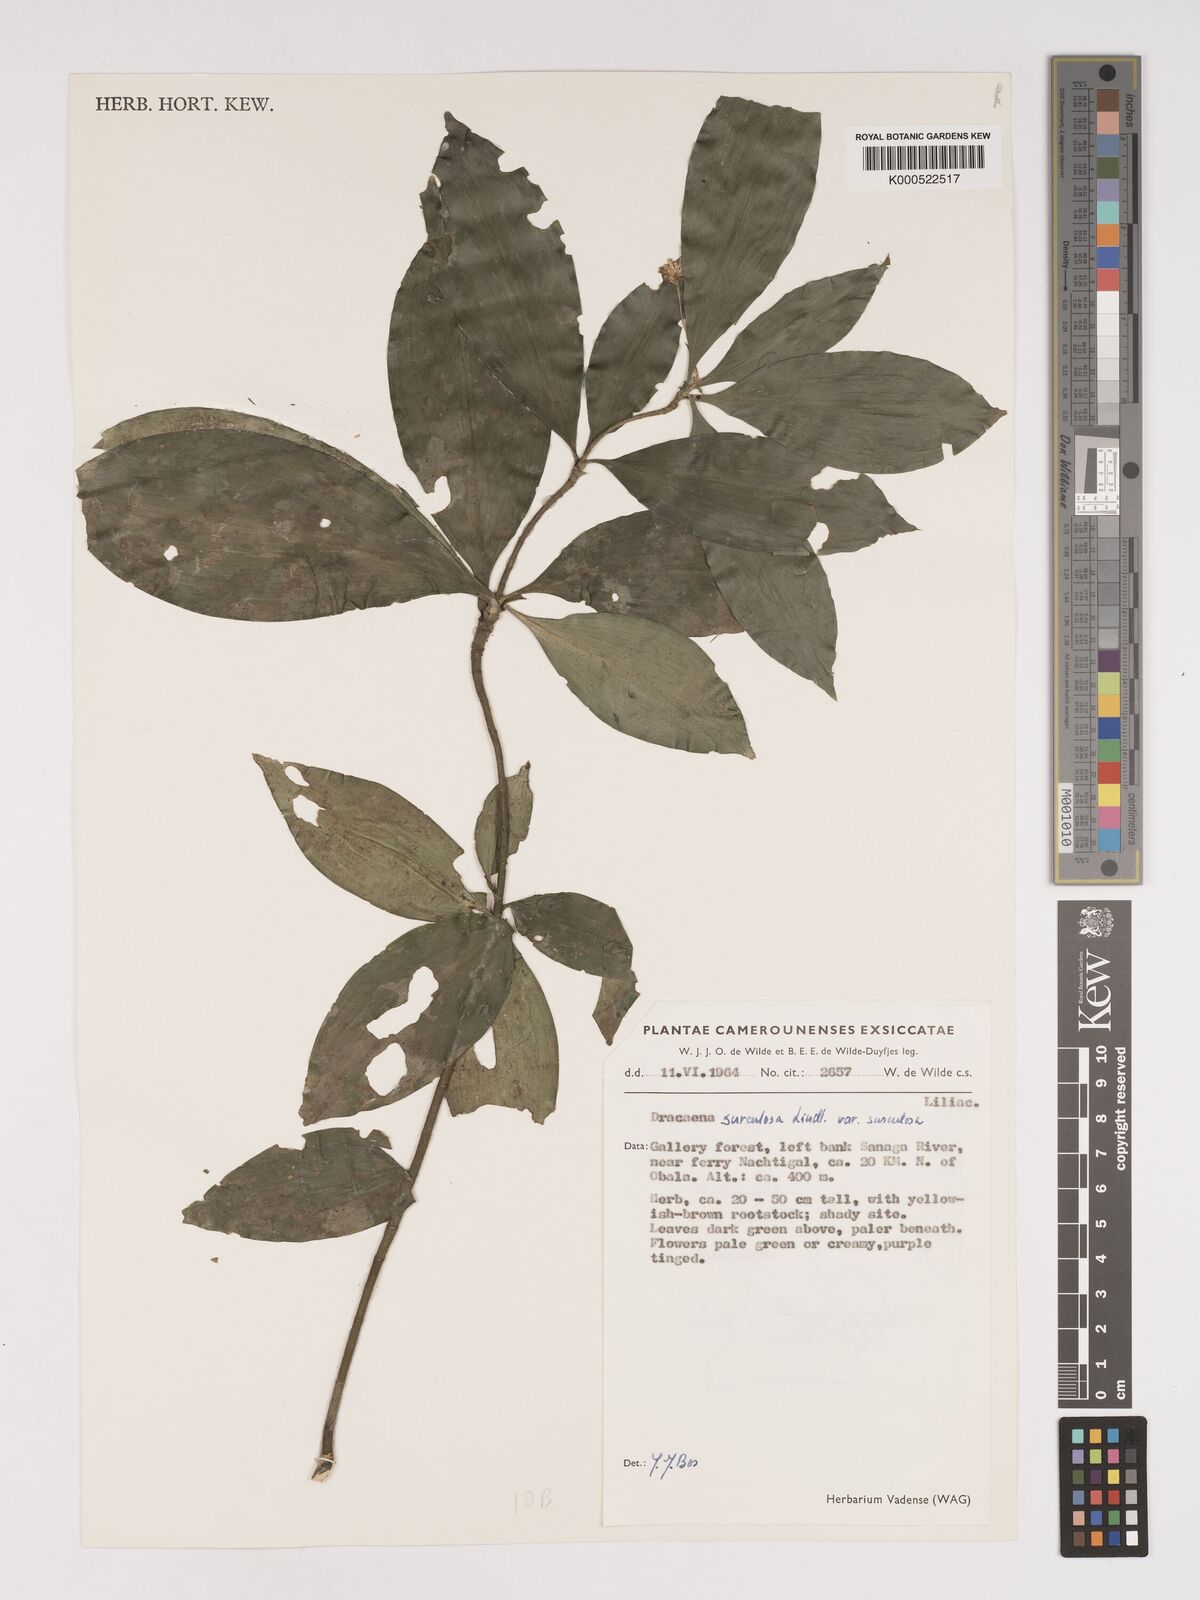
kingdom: Plantae
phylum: Tracheophyta
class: Liliopsida
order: Asparagales
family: Asparagaceae
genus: Dracaena
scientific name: Dracaena surculosa
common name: Spotted dracaena
